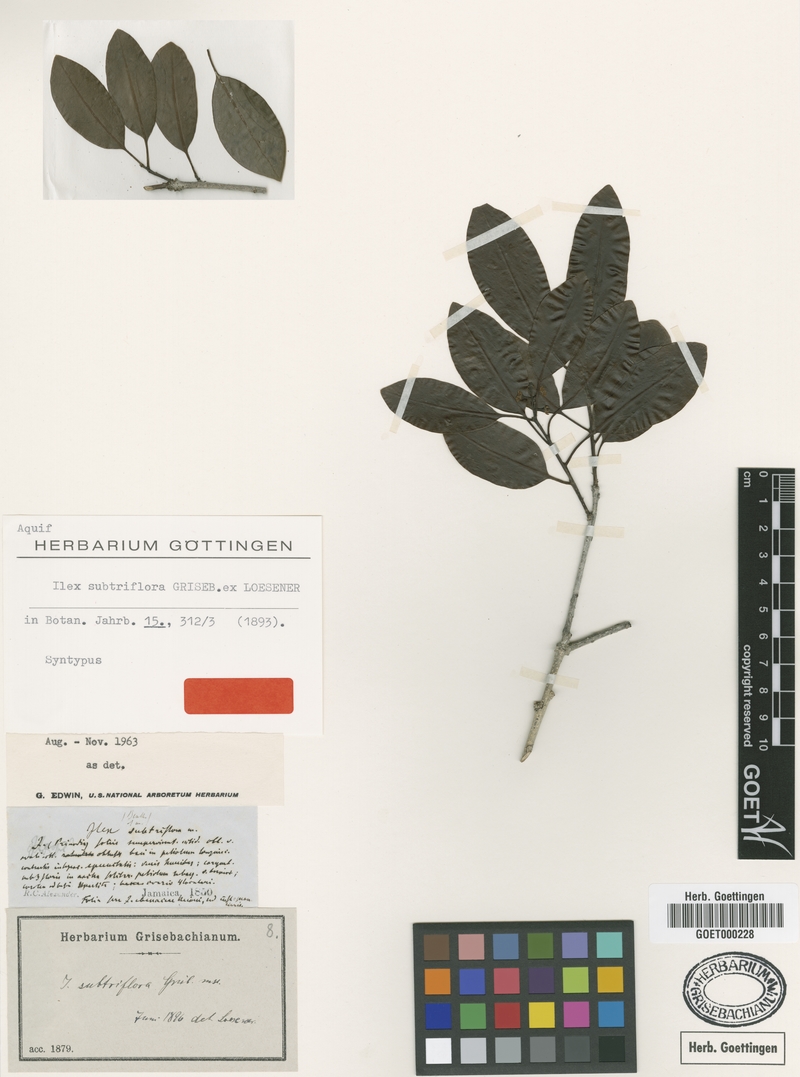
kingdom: Plantae
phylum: Tracheophyta
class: Magnoliopsida
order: Aquifoliales
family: Aquifoliaceae
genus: Ilex
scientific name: Ilex subtriflora
